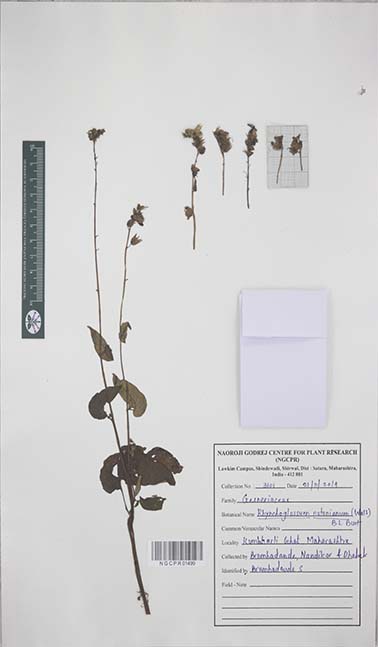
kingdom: Plantae
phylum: Tracheophyta
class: Magnoliopsida
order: Lamiales
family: Gesneriaceae
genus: Rhynchoglossum
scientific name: Rhynchoglossum notonianum
